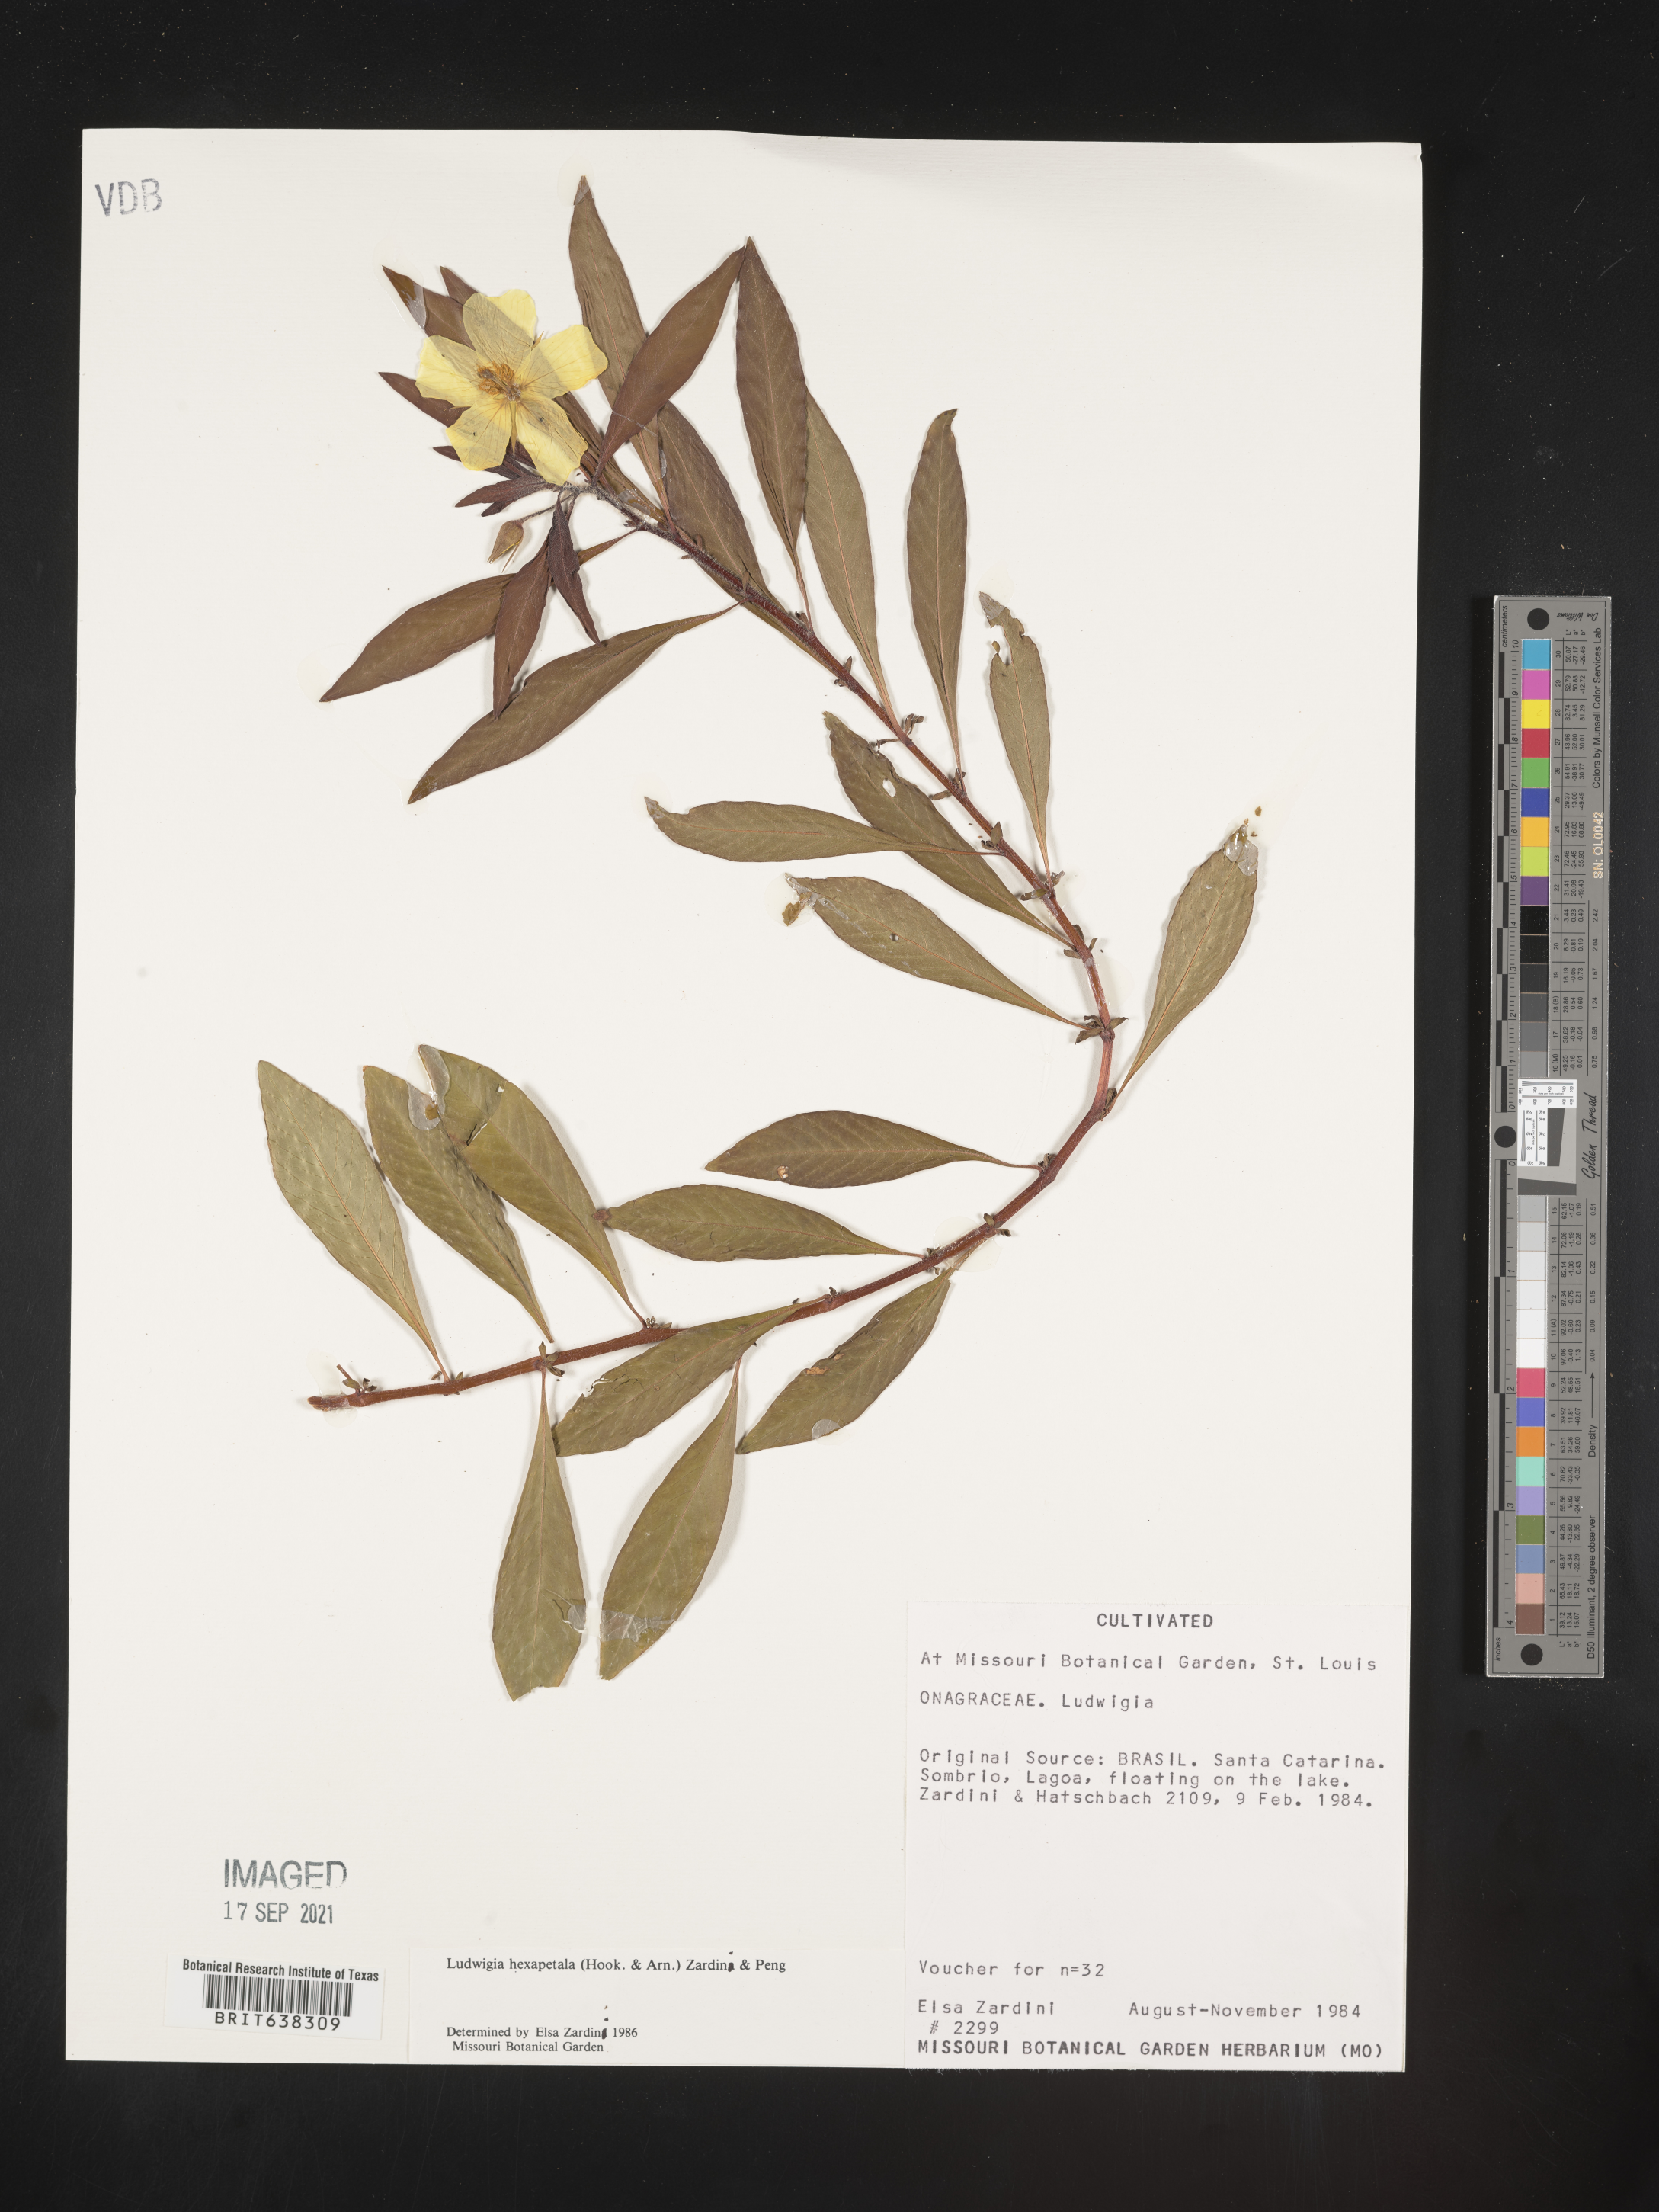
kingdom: Plantae
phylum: Tracheophyta
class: Magnoliopsida
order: Myrtales
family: Onagraceae
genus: Ludwigia
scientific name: Ludwigia
